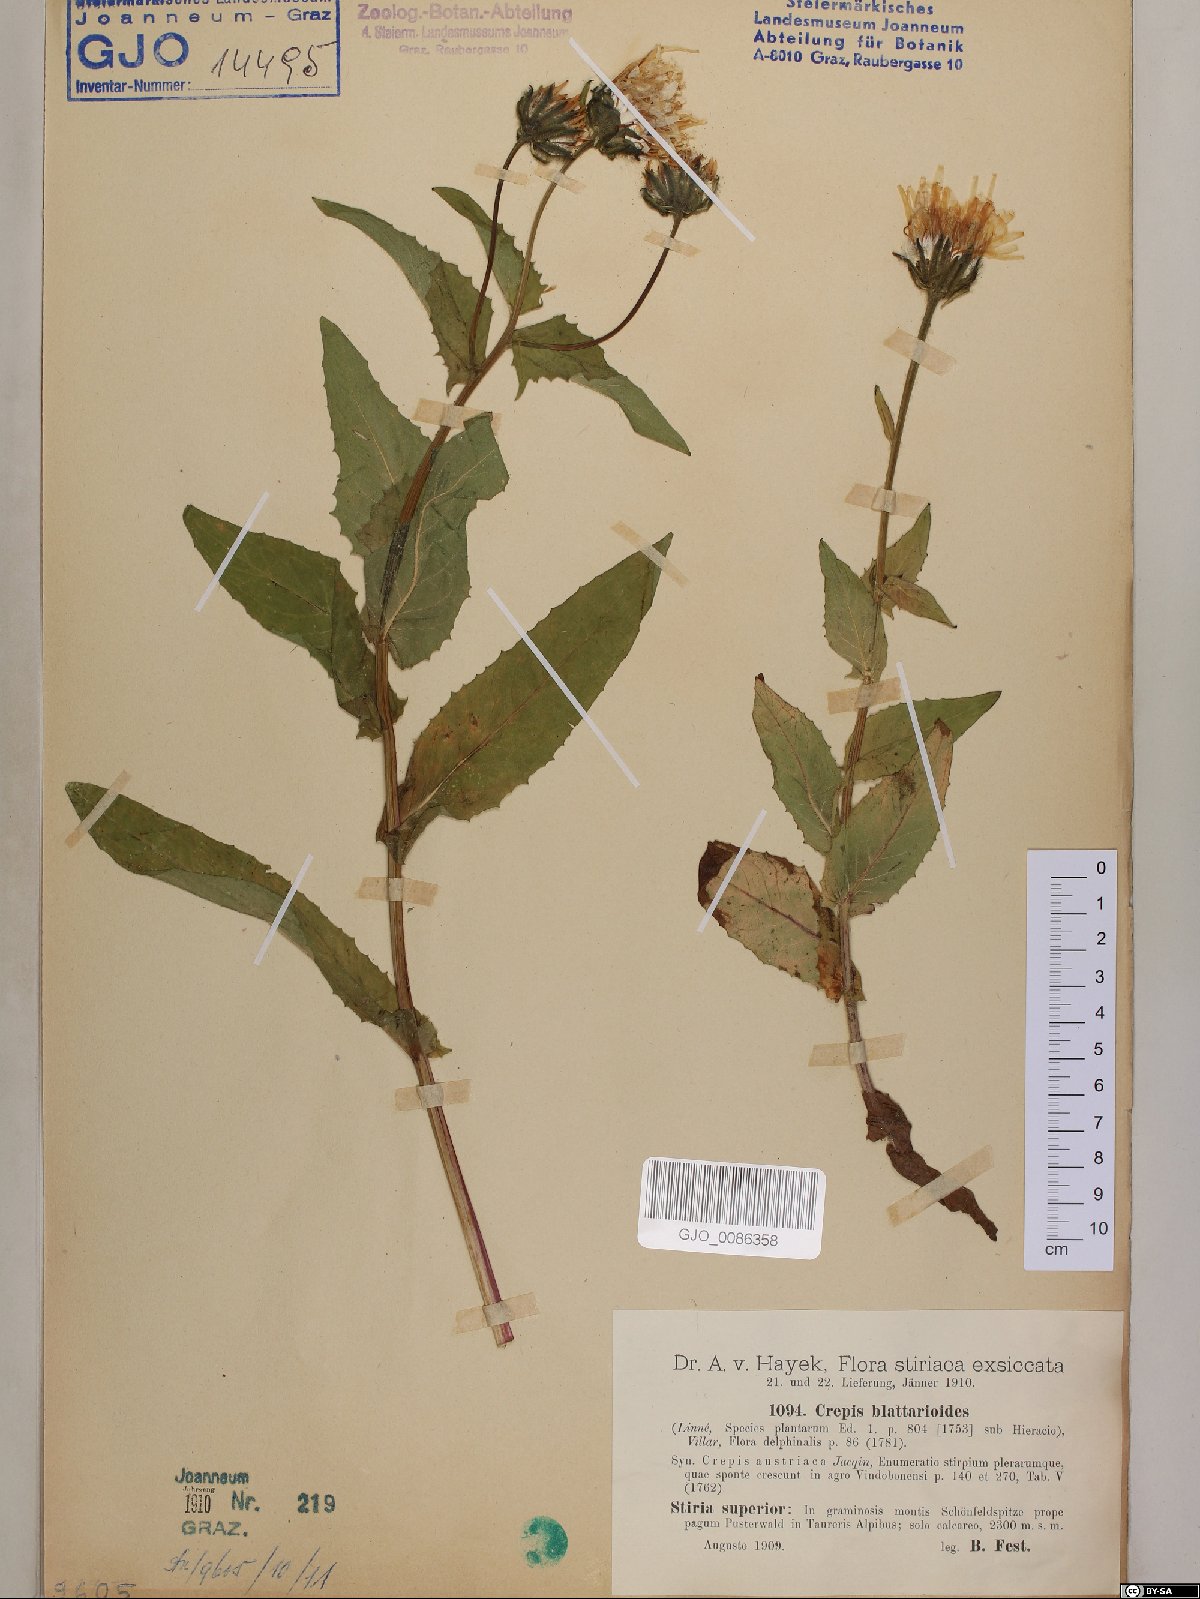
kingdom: Plantae
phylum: Tracheophyta
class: Magnoliopsida
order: Asterales
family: Asteraceae
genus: Crepis
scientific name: Crepis blattarioides
